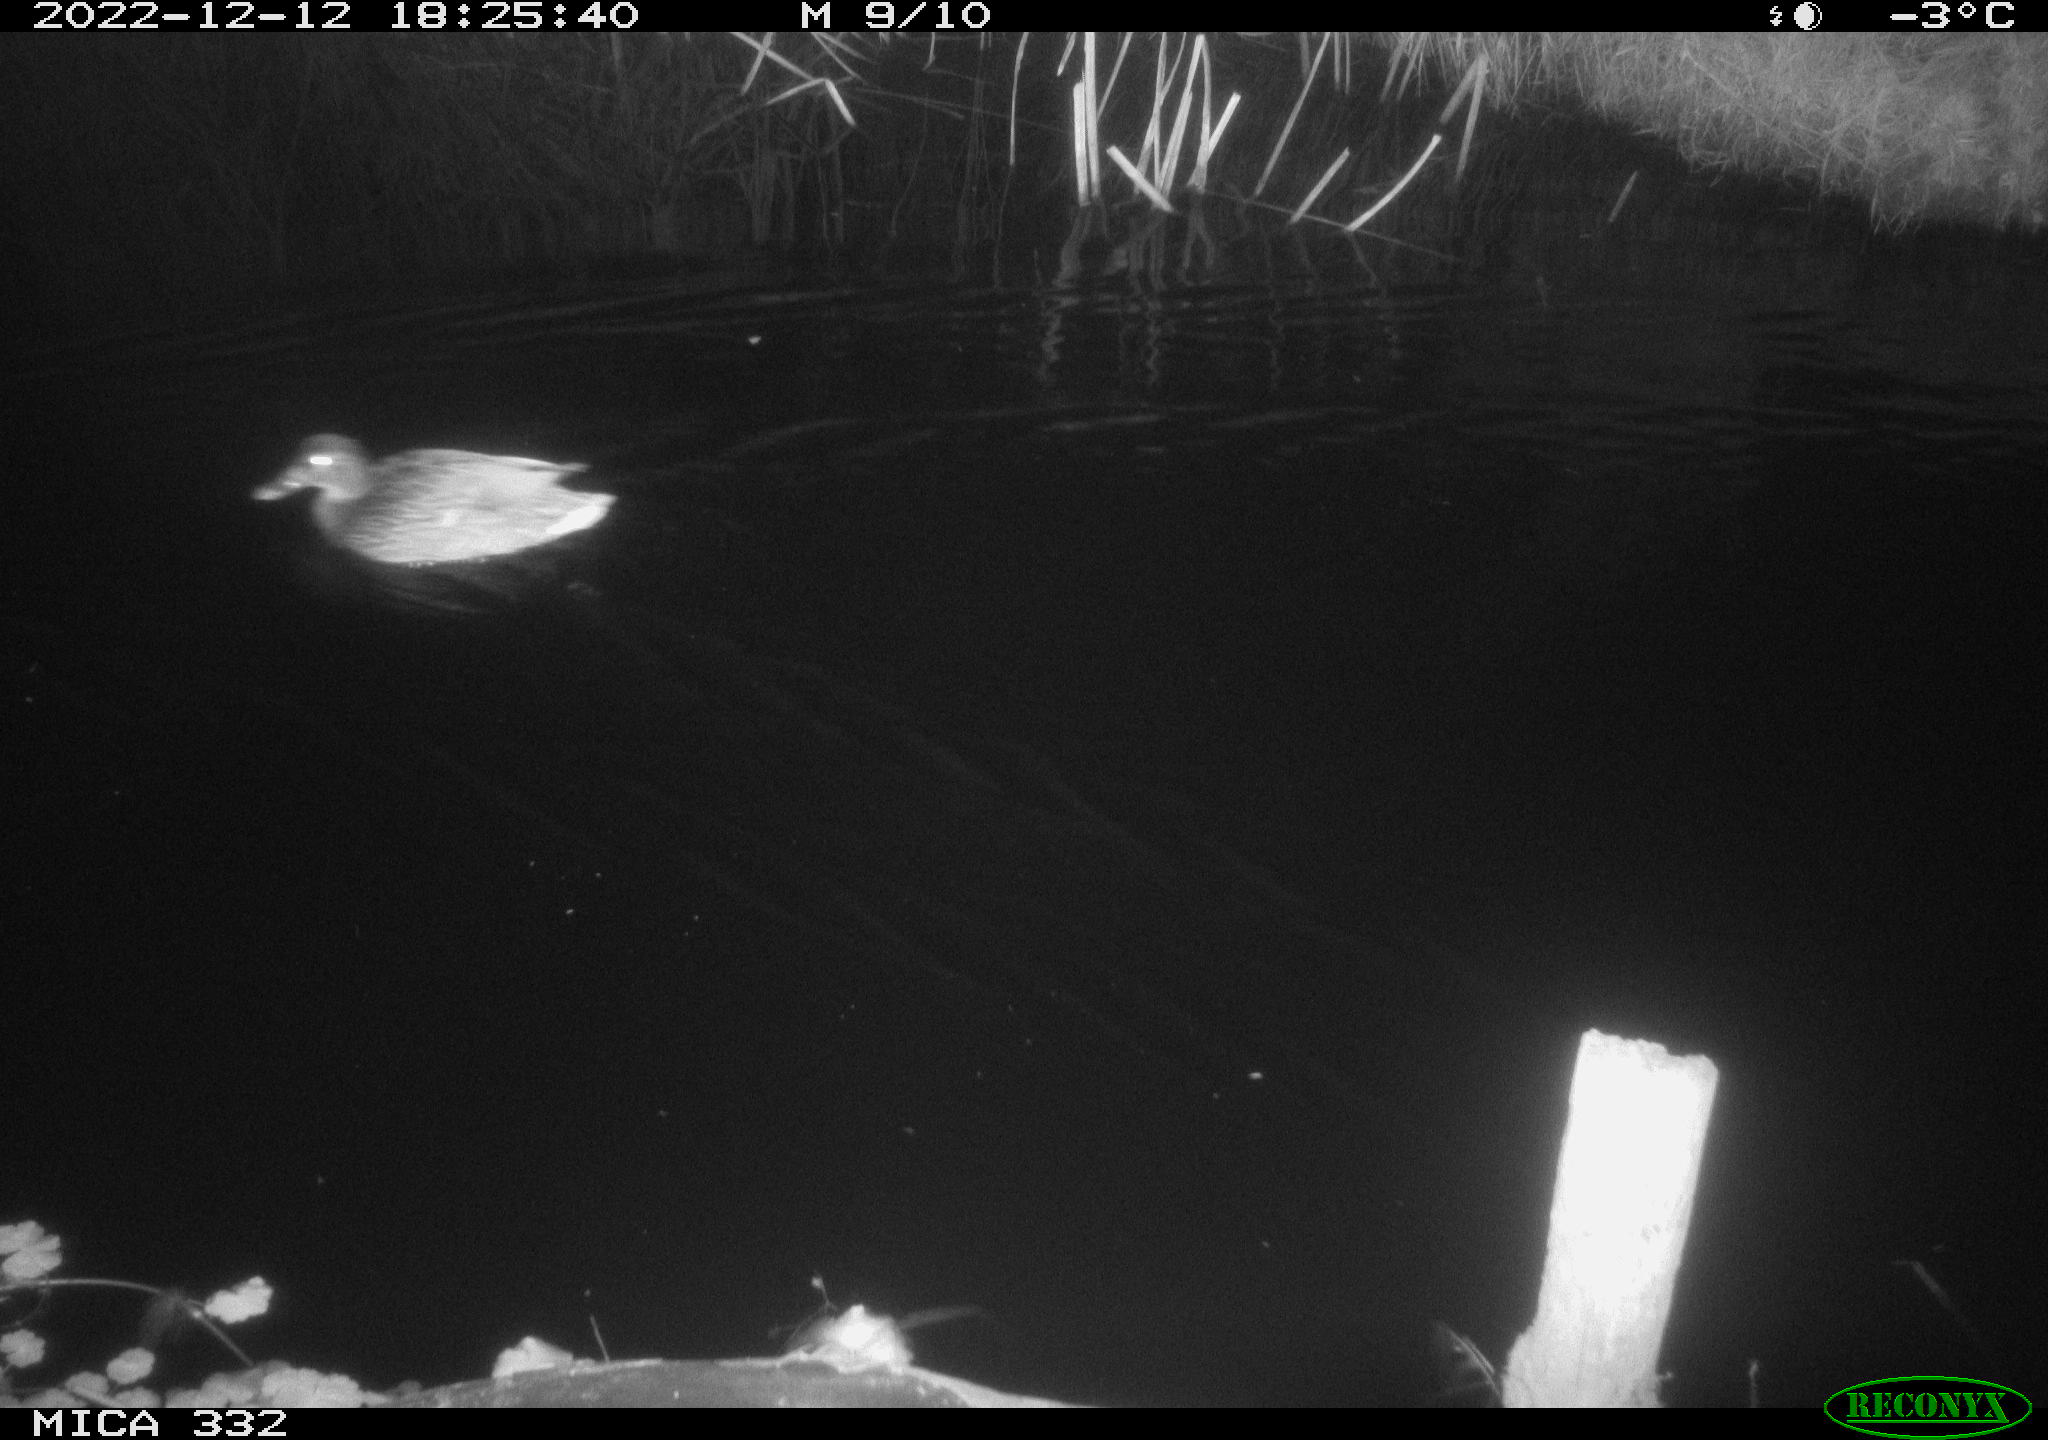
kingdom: Animalia
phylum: Chordata
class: Aves
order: Anseriformes
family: Anatidae
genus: Anas
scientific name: Anas
